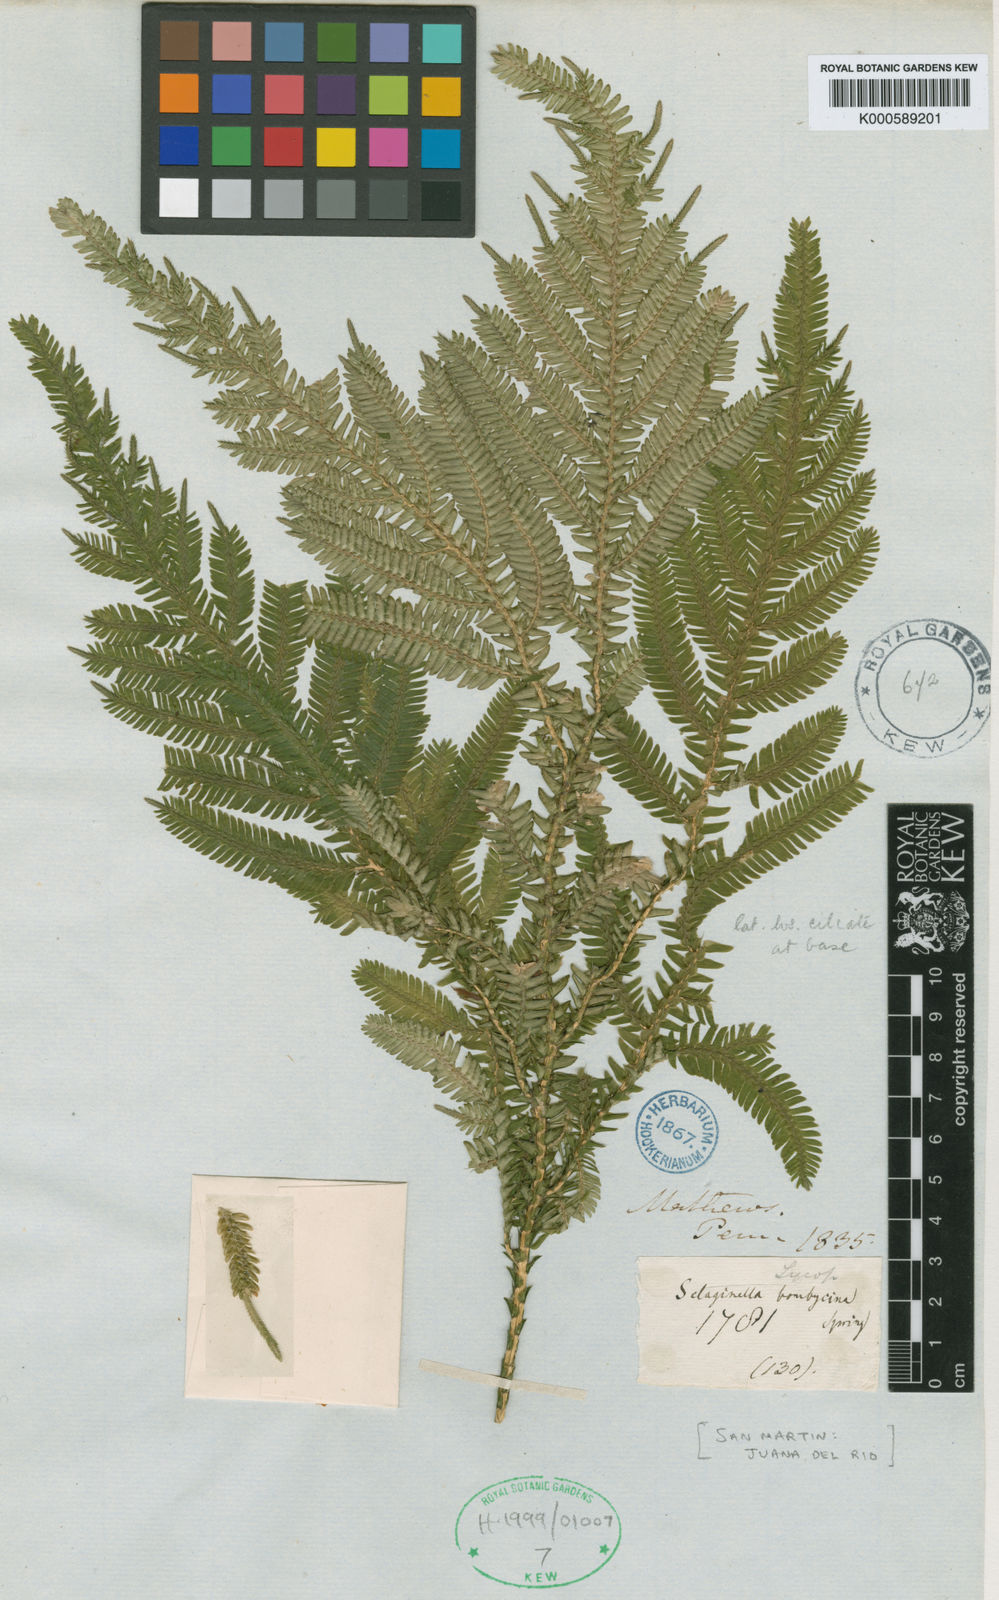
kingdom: Plantae
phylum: Tracheophyta
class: Lycopodiopsida
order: Selaginellales
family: Selaginellaceae
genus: Selaginella
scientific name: Selaginella bombycina
